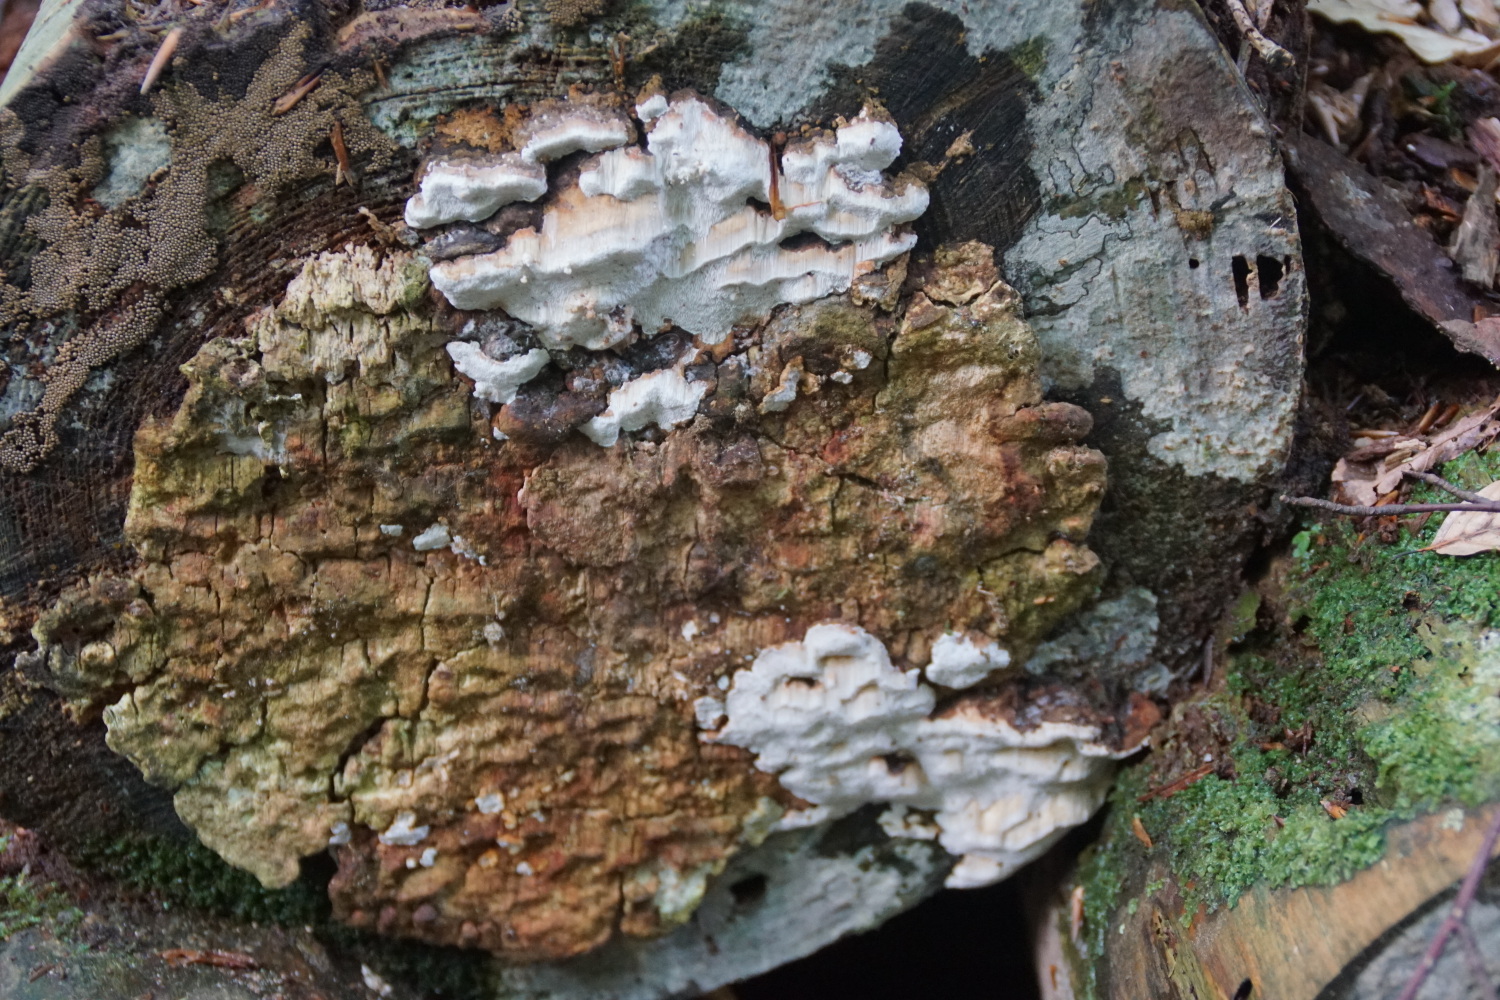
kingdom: Fungi
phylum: Basidiomycota
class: Agaricomycetes
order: Polyporales
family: Fomitopsidaceae
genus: Neoantrodia
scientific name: Neoantrodia serialis
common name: række-sejporesvamp
